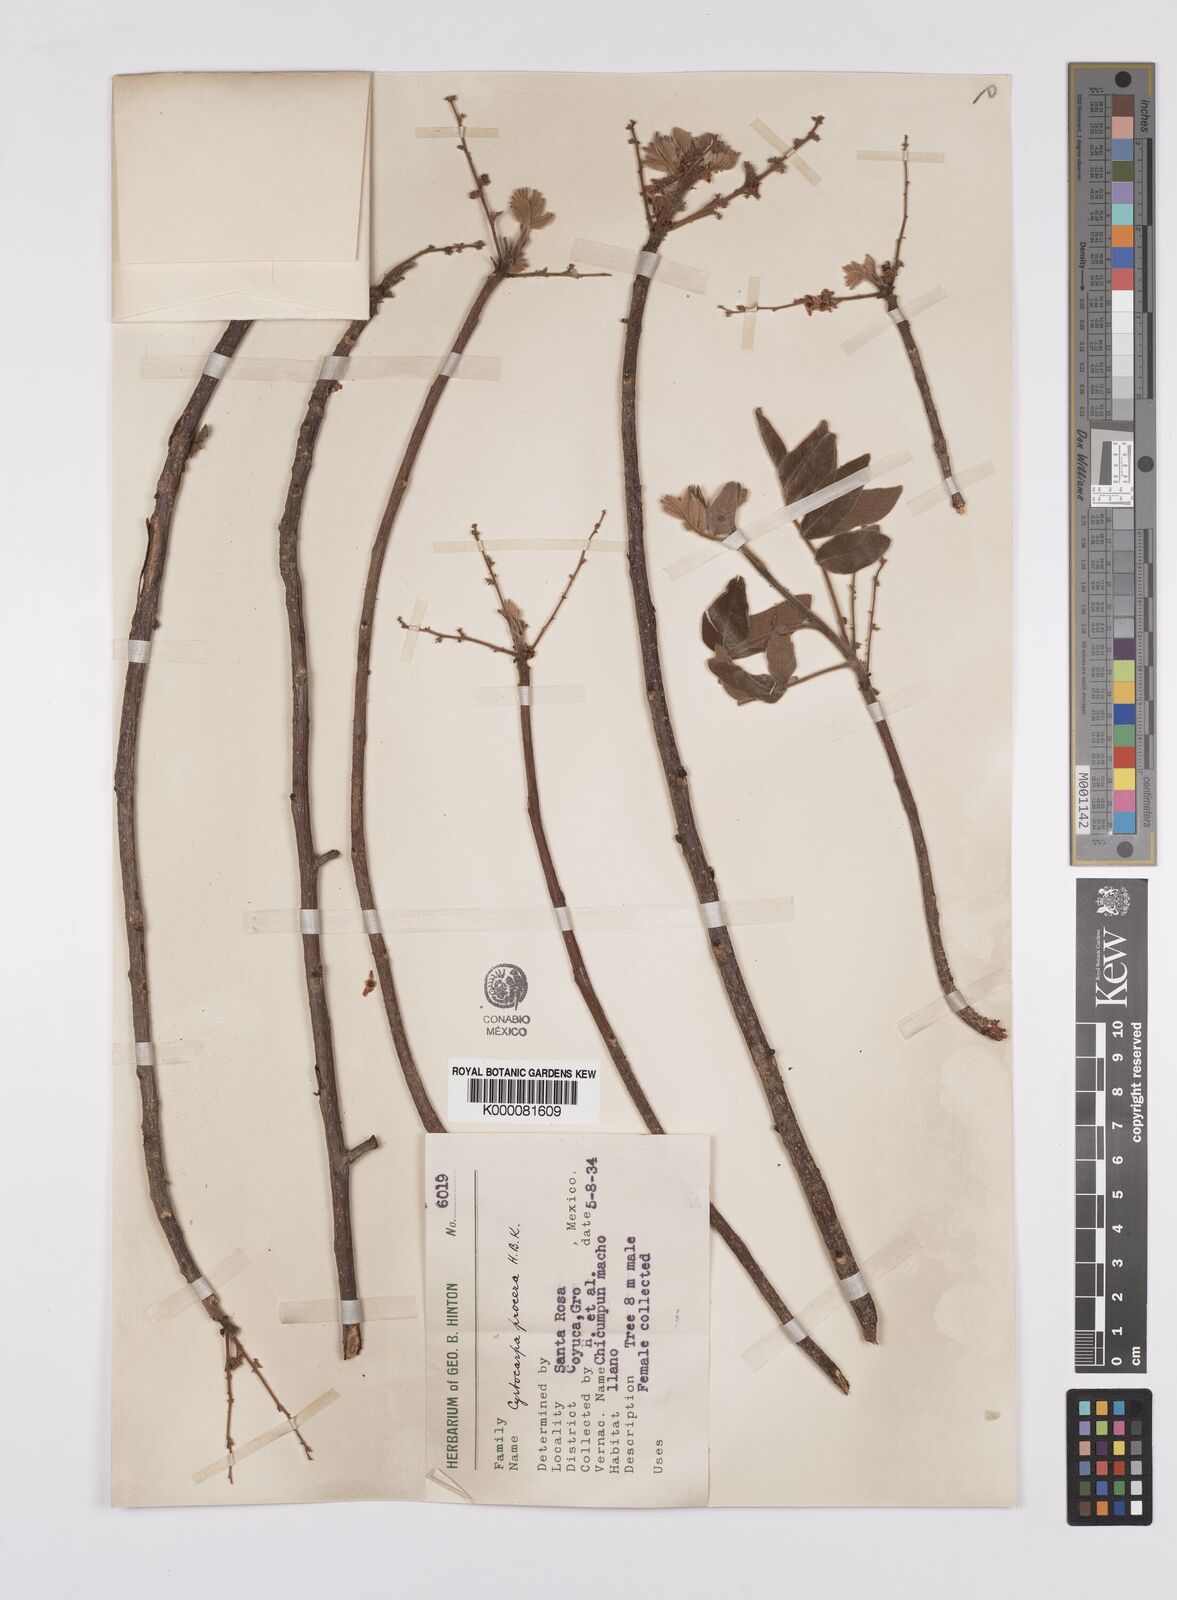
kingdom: Plantae
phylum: Tracheophyta
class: Magnoliopsida
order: Sapindales
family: Anacardiaceae
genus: Cyrtocarpa
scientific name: Cyrtocarpa procera
